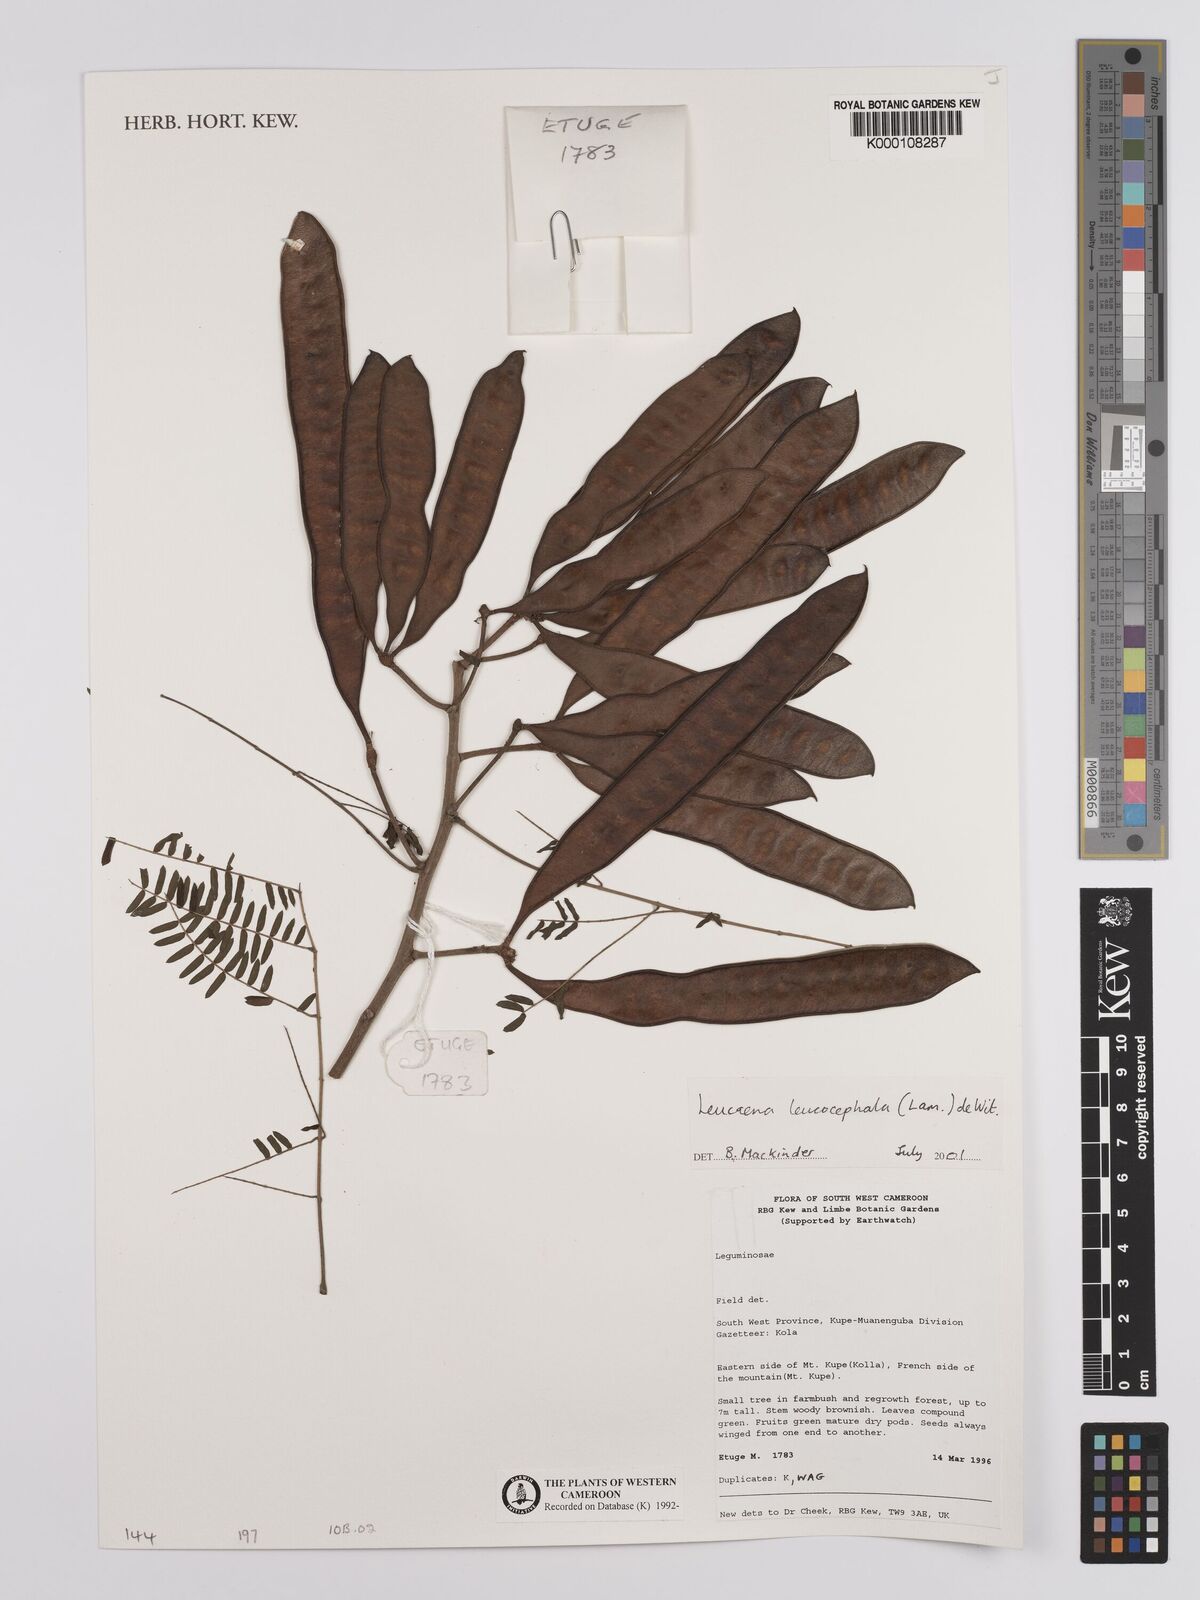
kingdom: Plantae
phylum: Tracheophyta
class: Magnoliopsida
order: Fabales
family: Fabaceae
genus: Leucaena
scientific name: Leucaena leucocephala
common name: White leadtree
